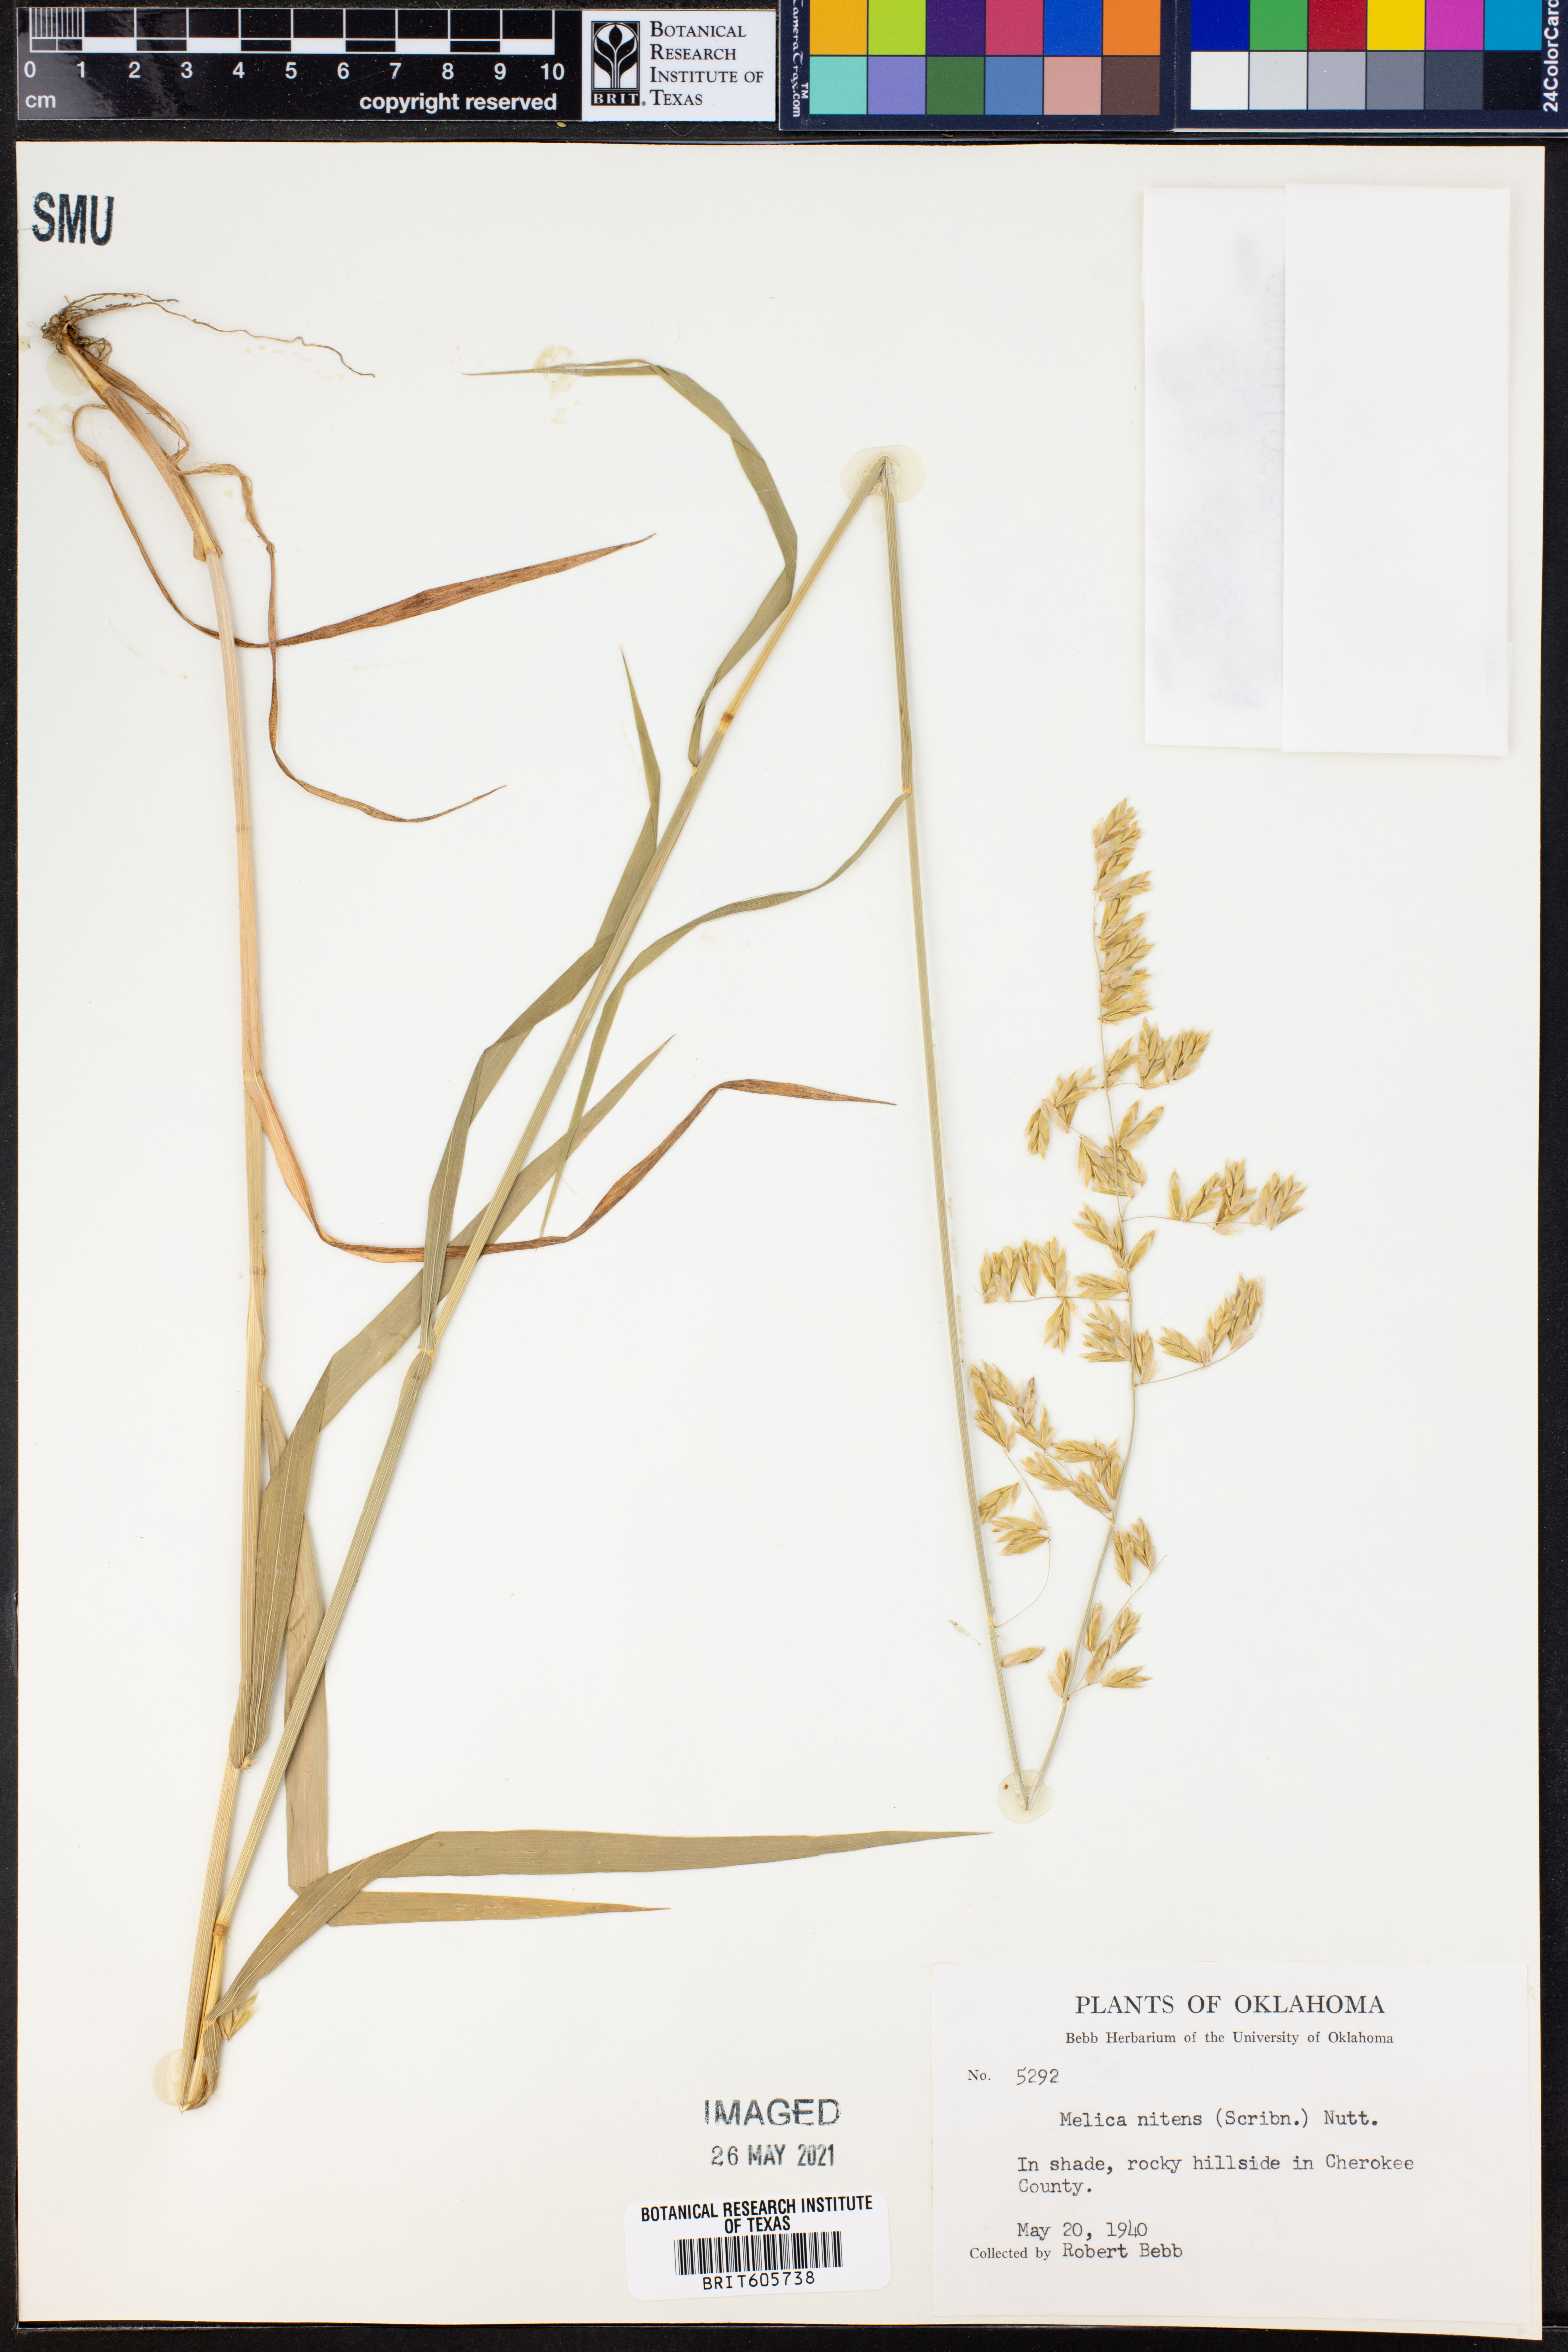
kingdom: Plantae
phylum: Tracheophyta
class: Liliopsida
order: Poales
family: Poaceae
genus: Melica
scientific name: Melica nitens
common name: Three-flower melic
